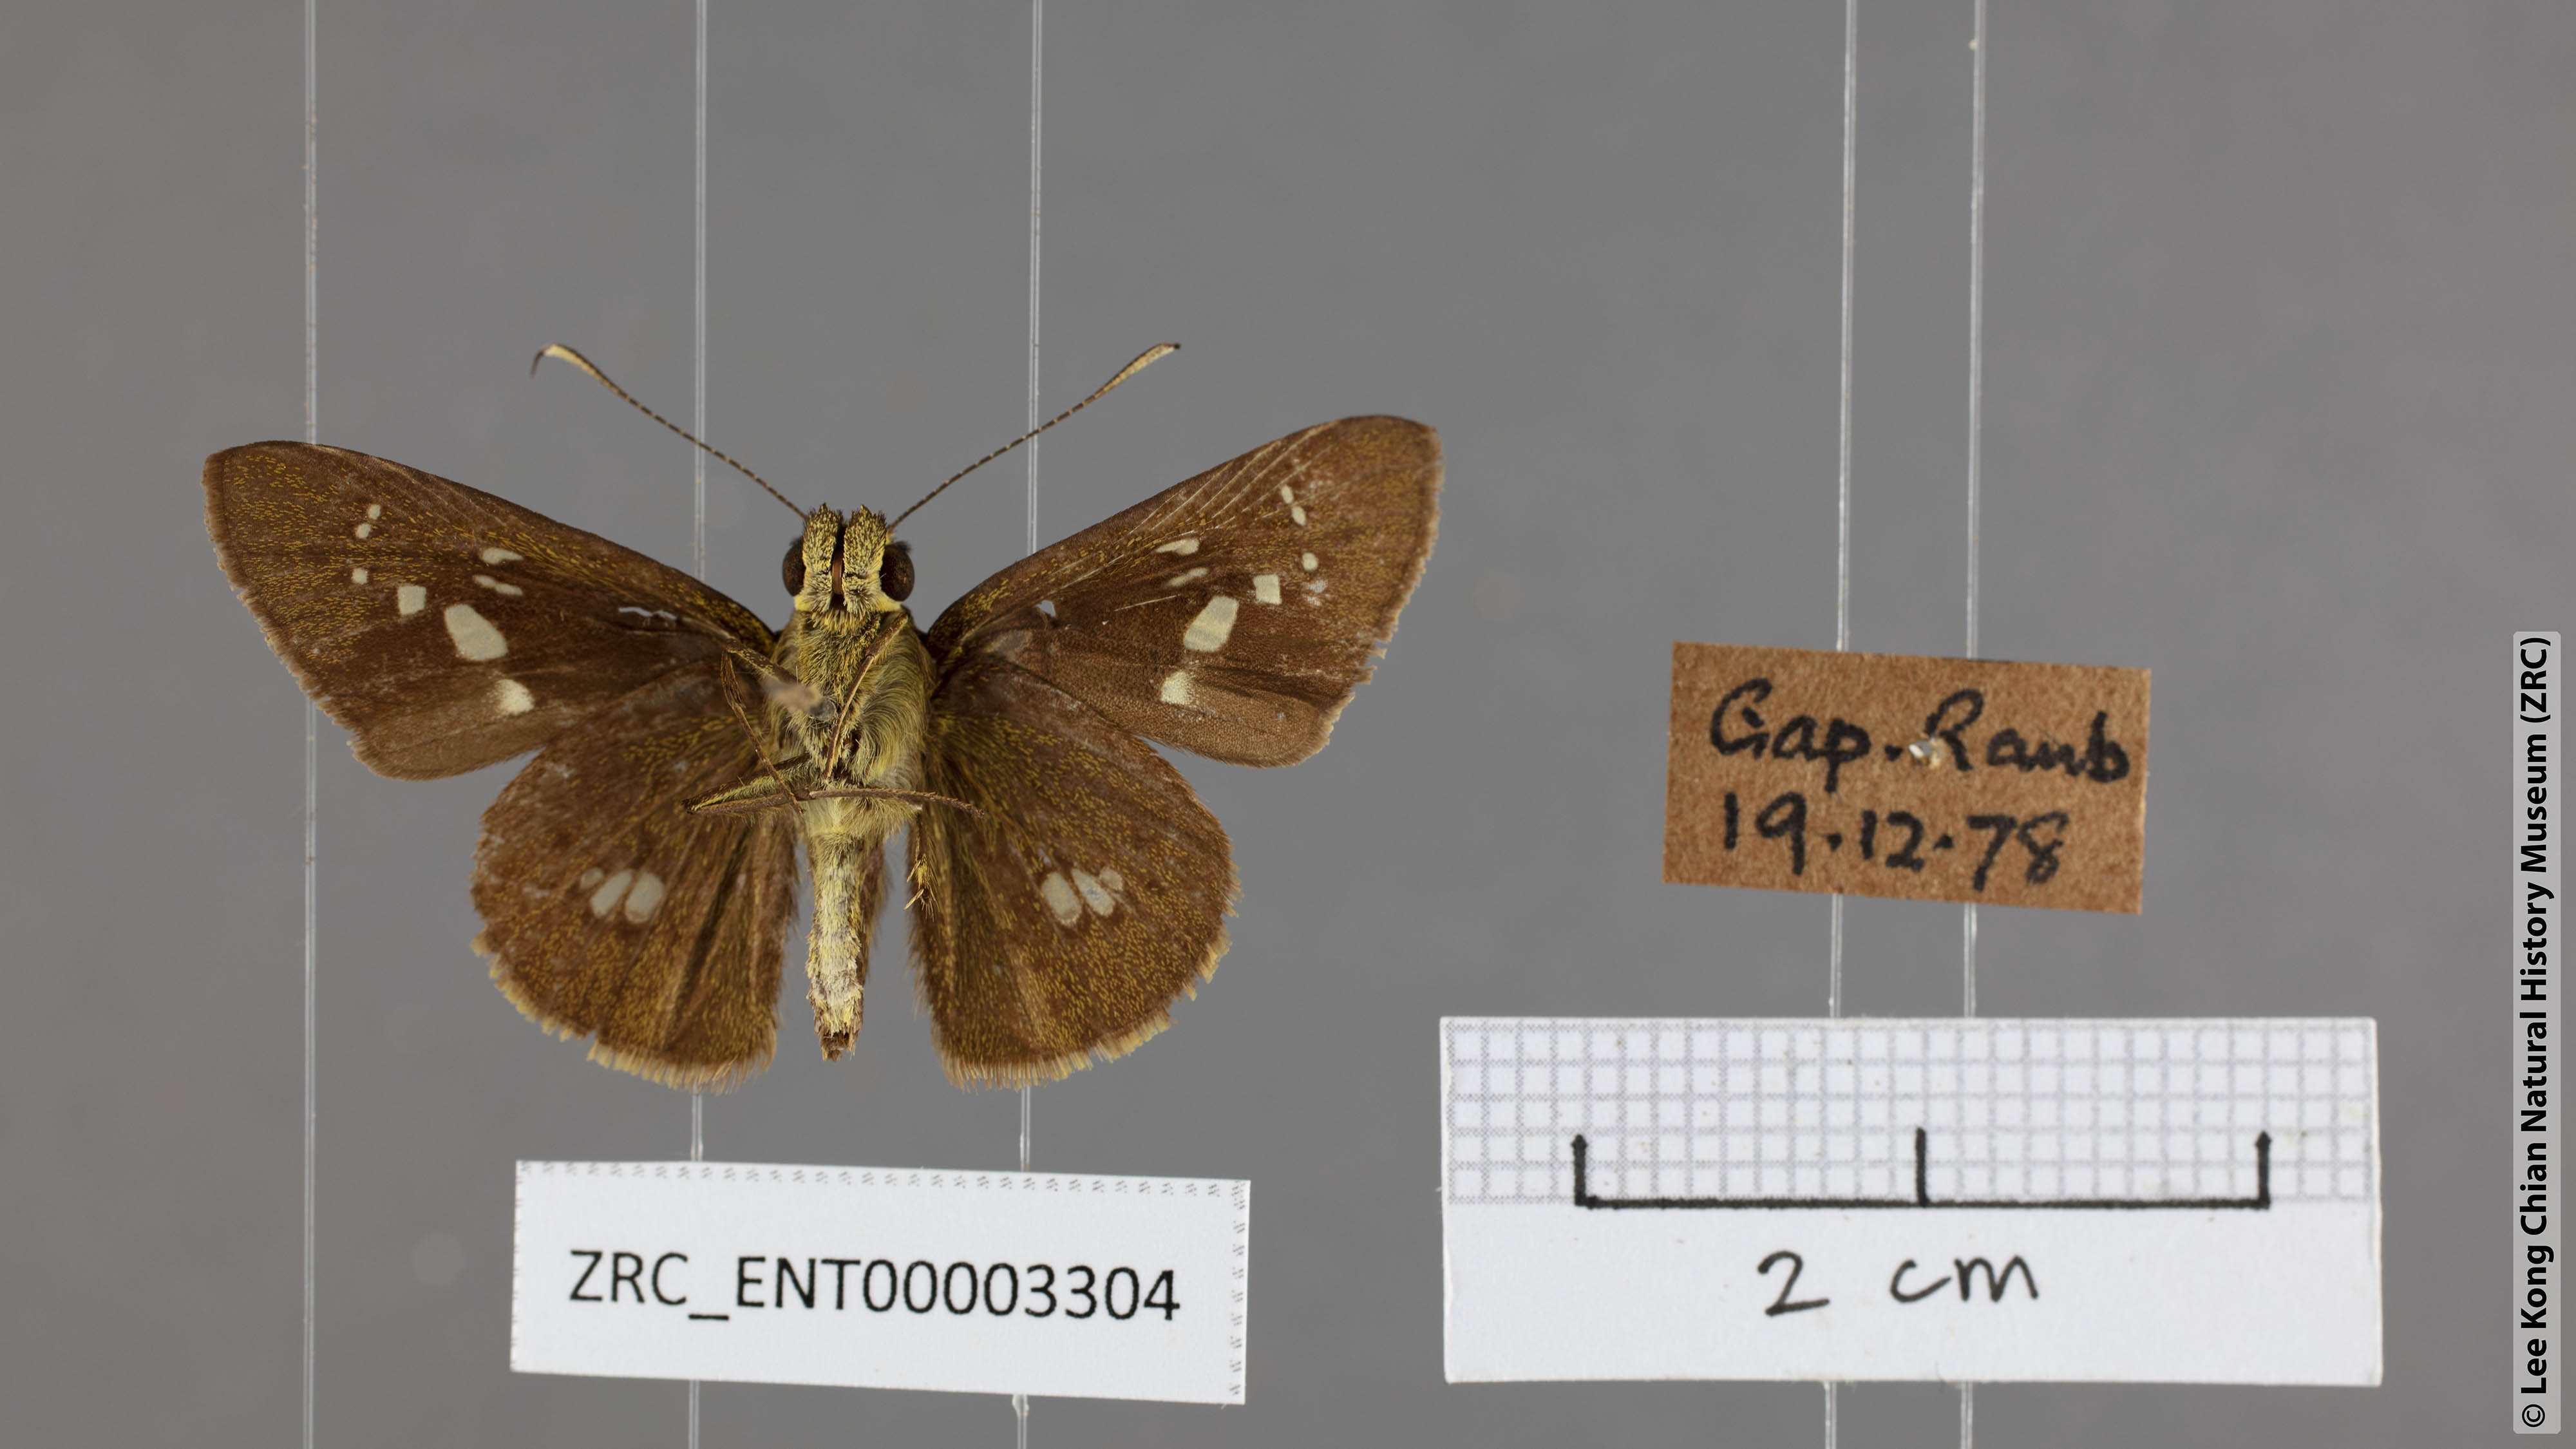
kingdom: Animalia
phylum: Arthropoda
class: Insecta
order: Lepidoptera
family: Hesperiidae
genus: Isma
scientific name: Isma feralia
